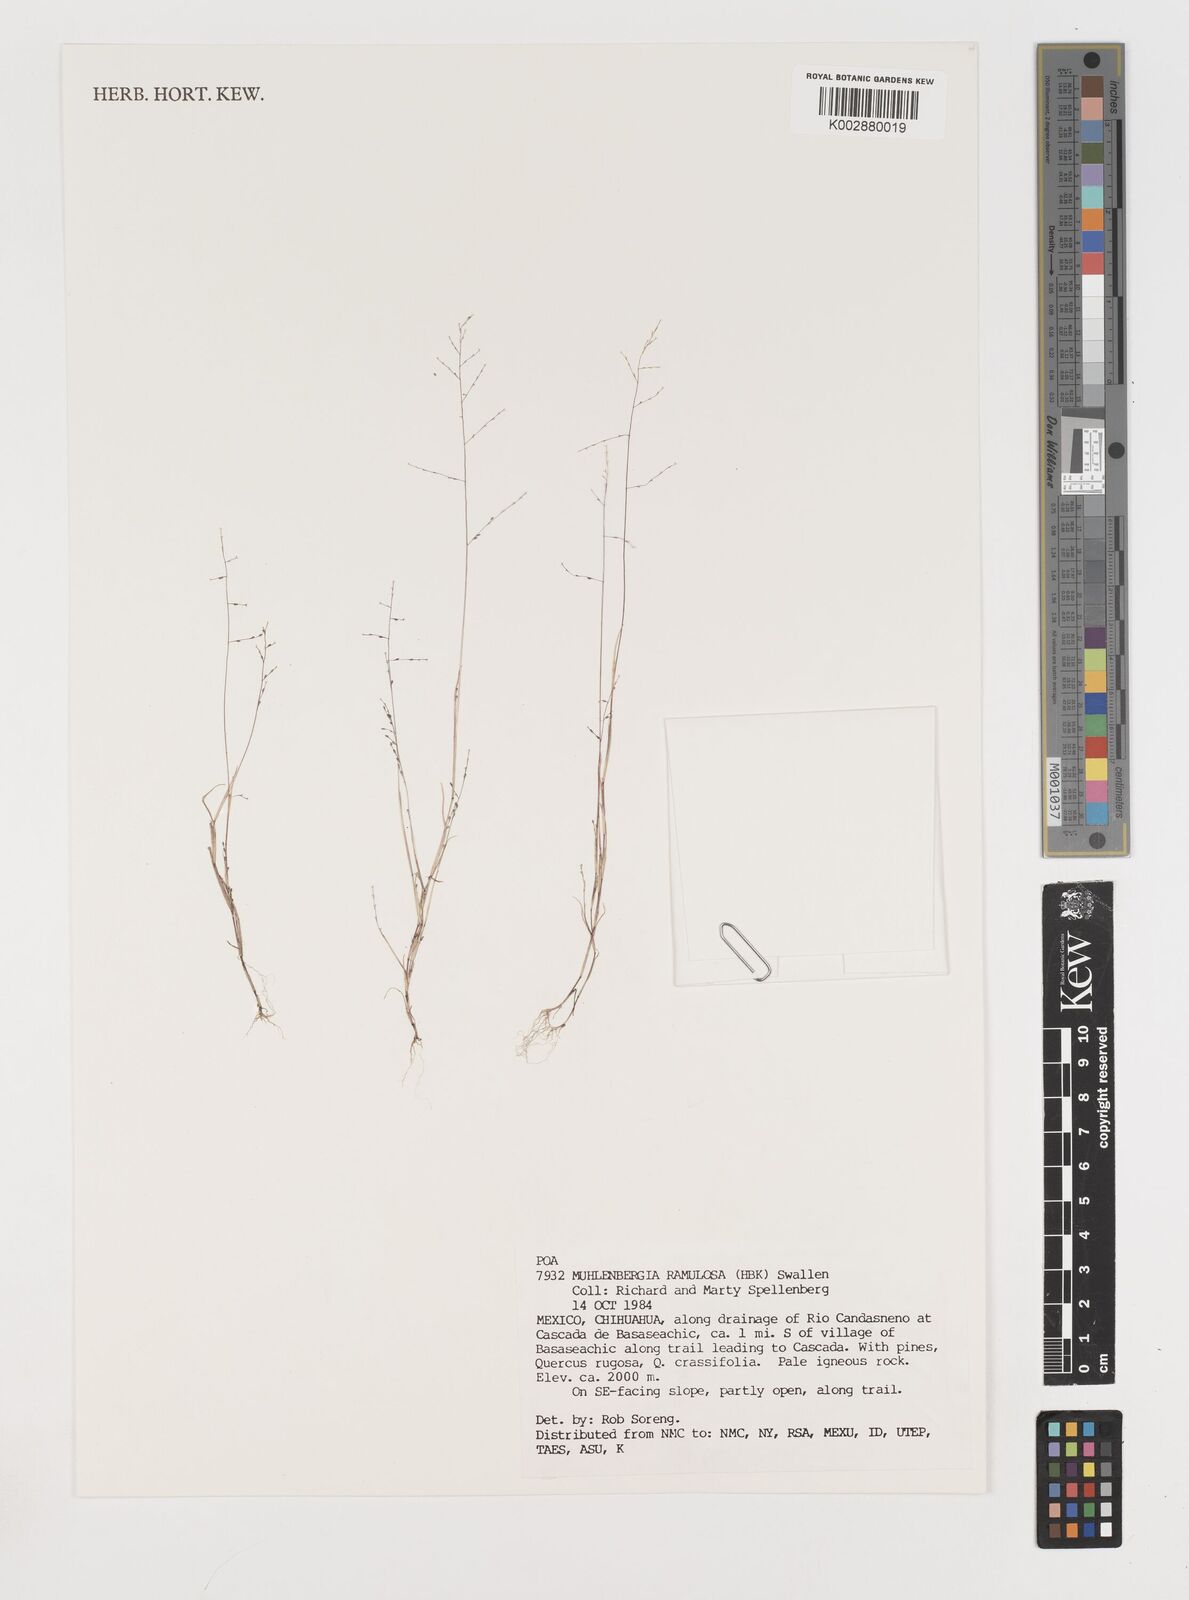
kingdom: Plantae
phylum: Tracheophyta
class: Liliopsida
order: Poales
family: Poaceae
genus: Muhlenbergia
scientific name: Muhlenbergia ramulosa
